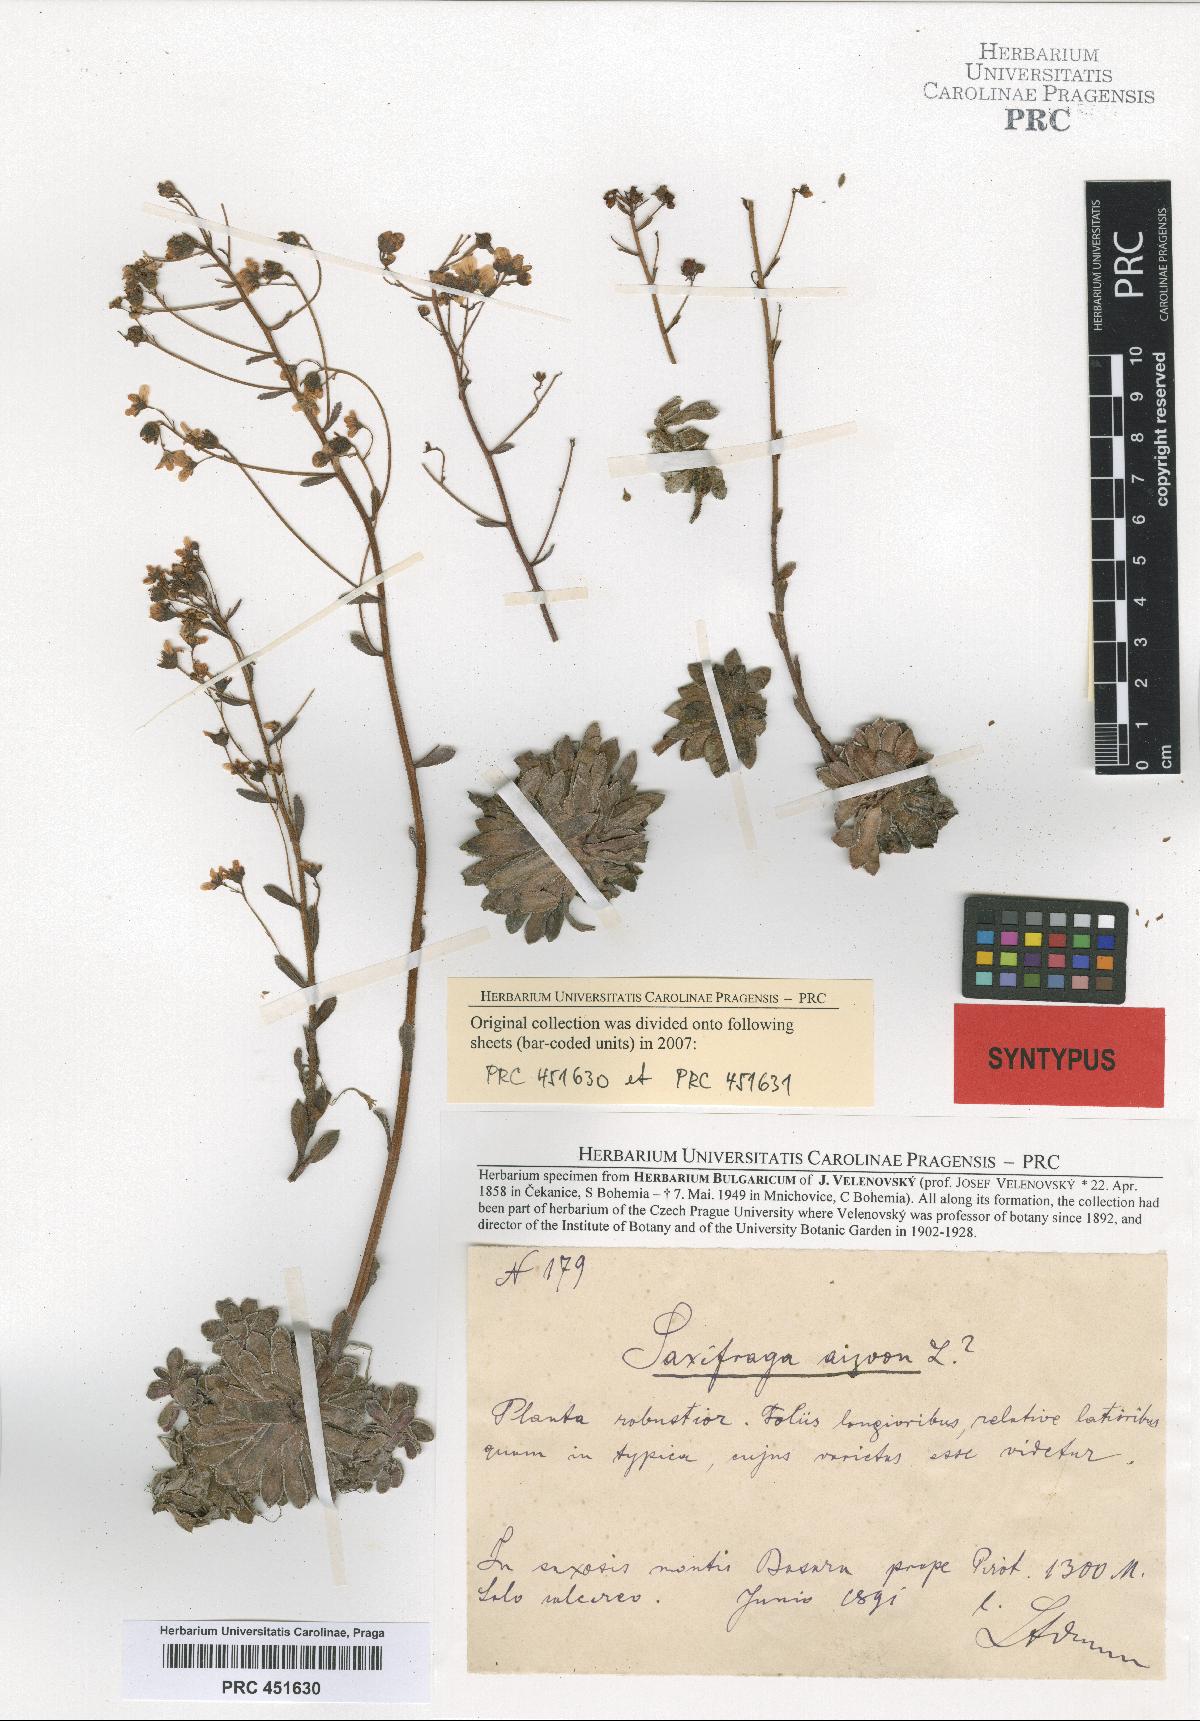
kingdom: Plantae
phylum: Tracheophyta
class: Magnoliopsida
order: Saxifragales
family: Saxifragaceae
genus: Saxifraga
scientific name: Saxifraga paniculata
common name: Livelong saxifrage
